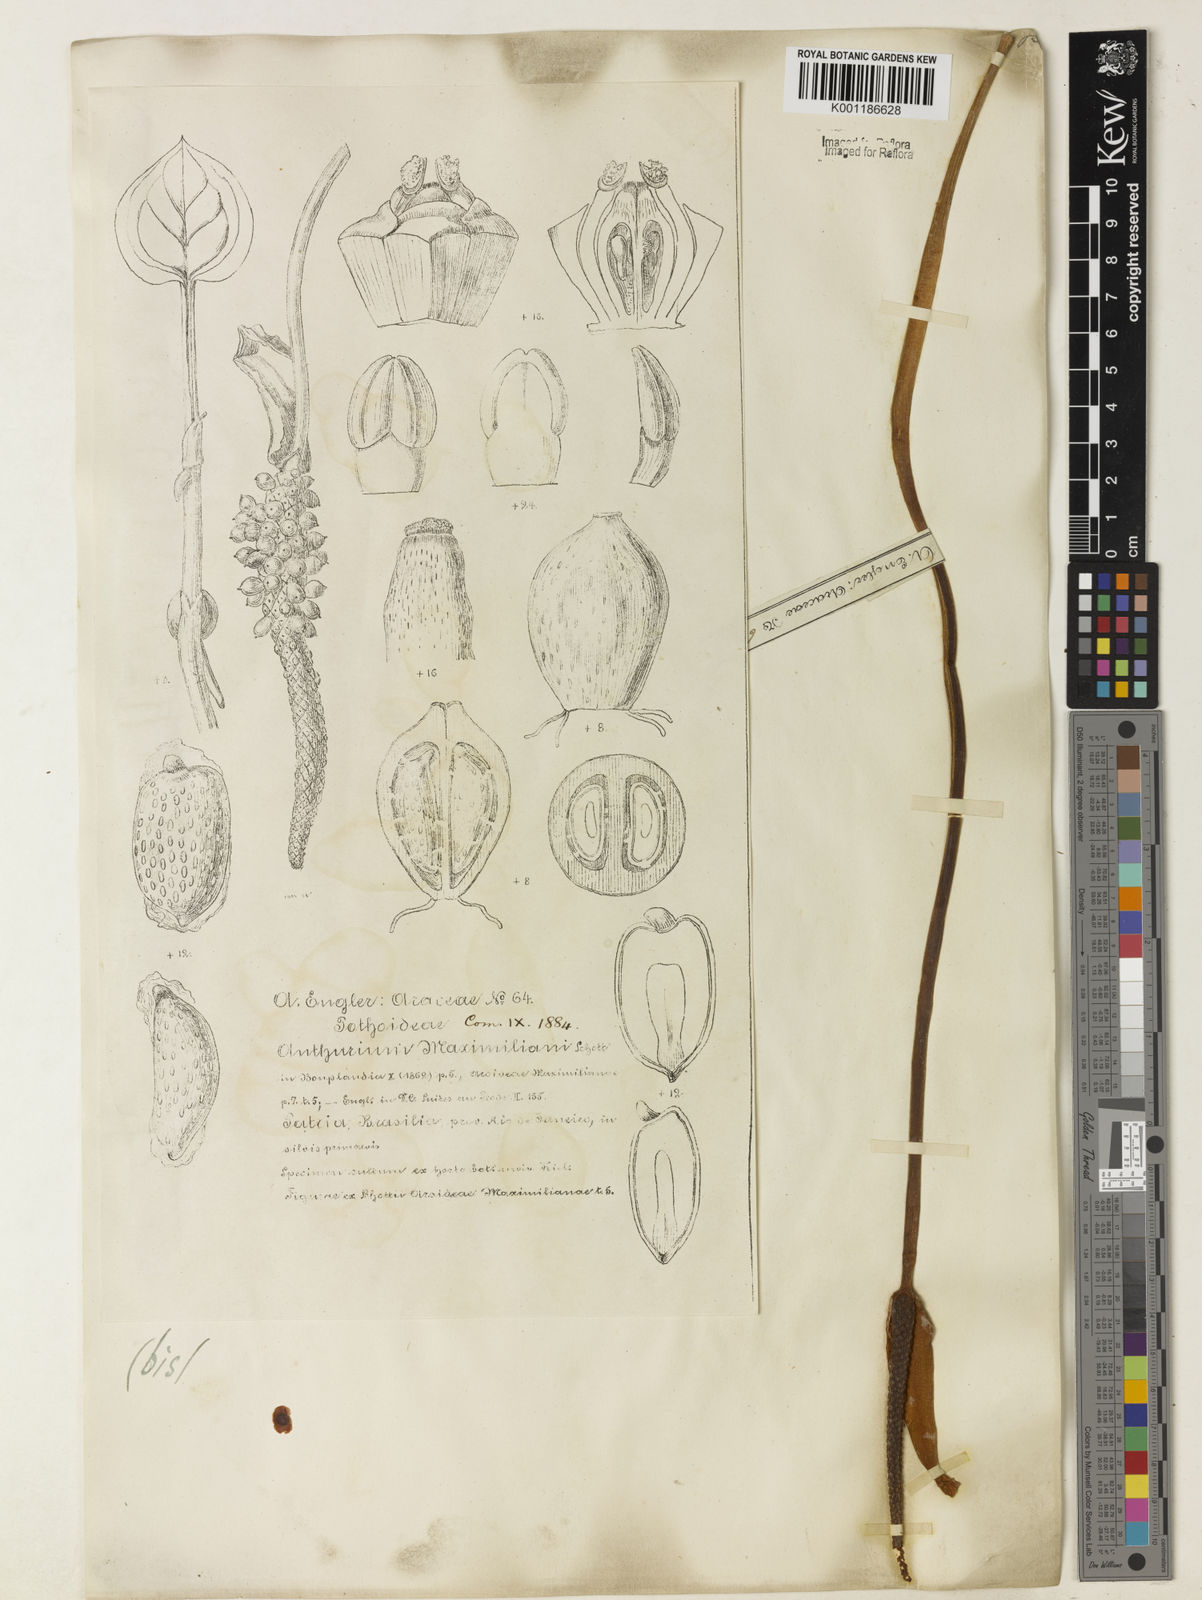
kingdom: Plantae
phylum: Tracheophyta
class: Liliopsida
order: Alismatales
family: Araceae
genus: Anthurium
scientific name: Anthurium augustinum
